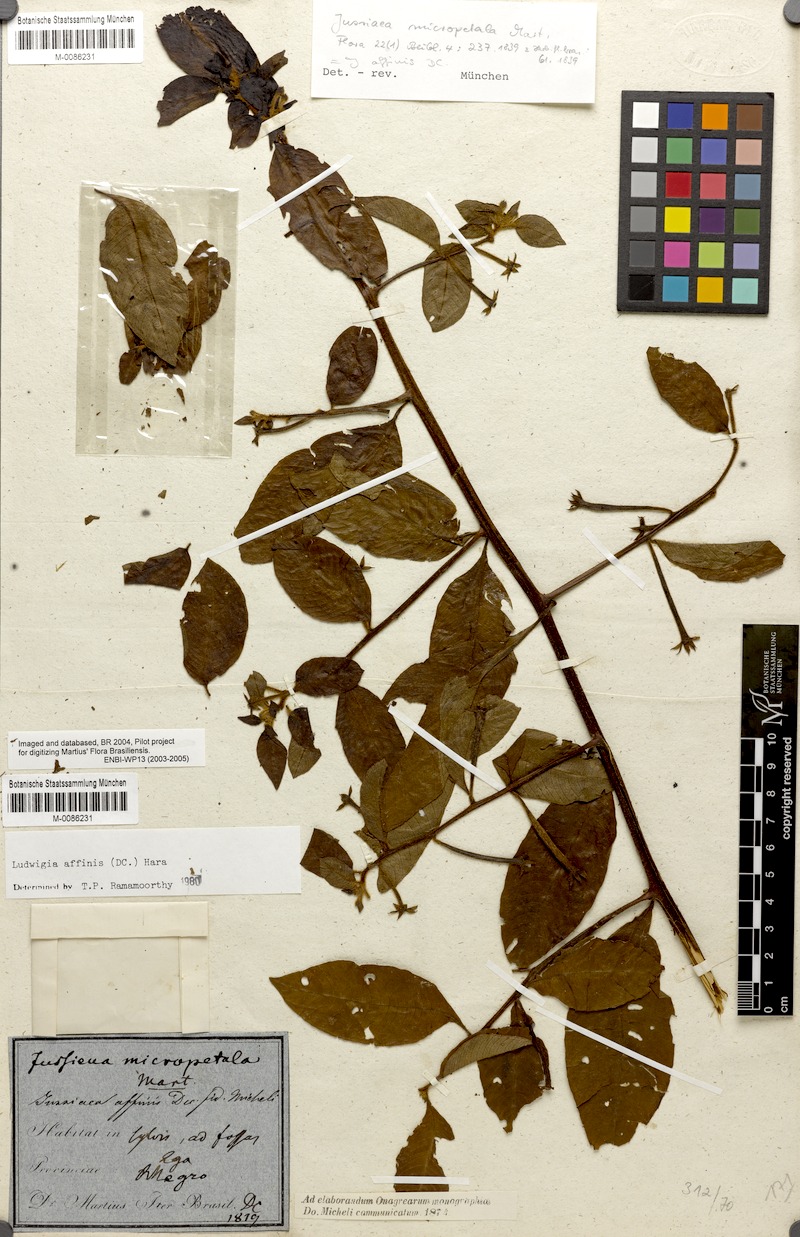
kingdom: Plantae
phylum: Tracheophyta
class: Magnoliopsida
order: Myrtales
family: Onagraceae
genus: Ludwigia
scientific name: Ludwigia affinis
